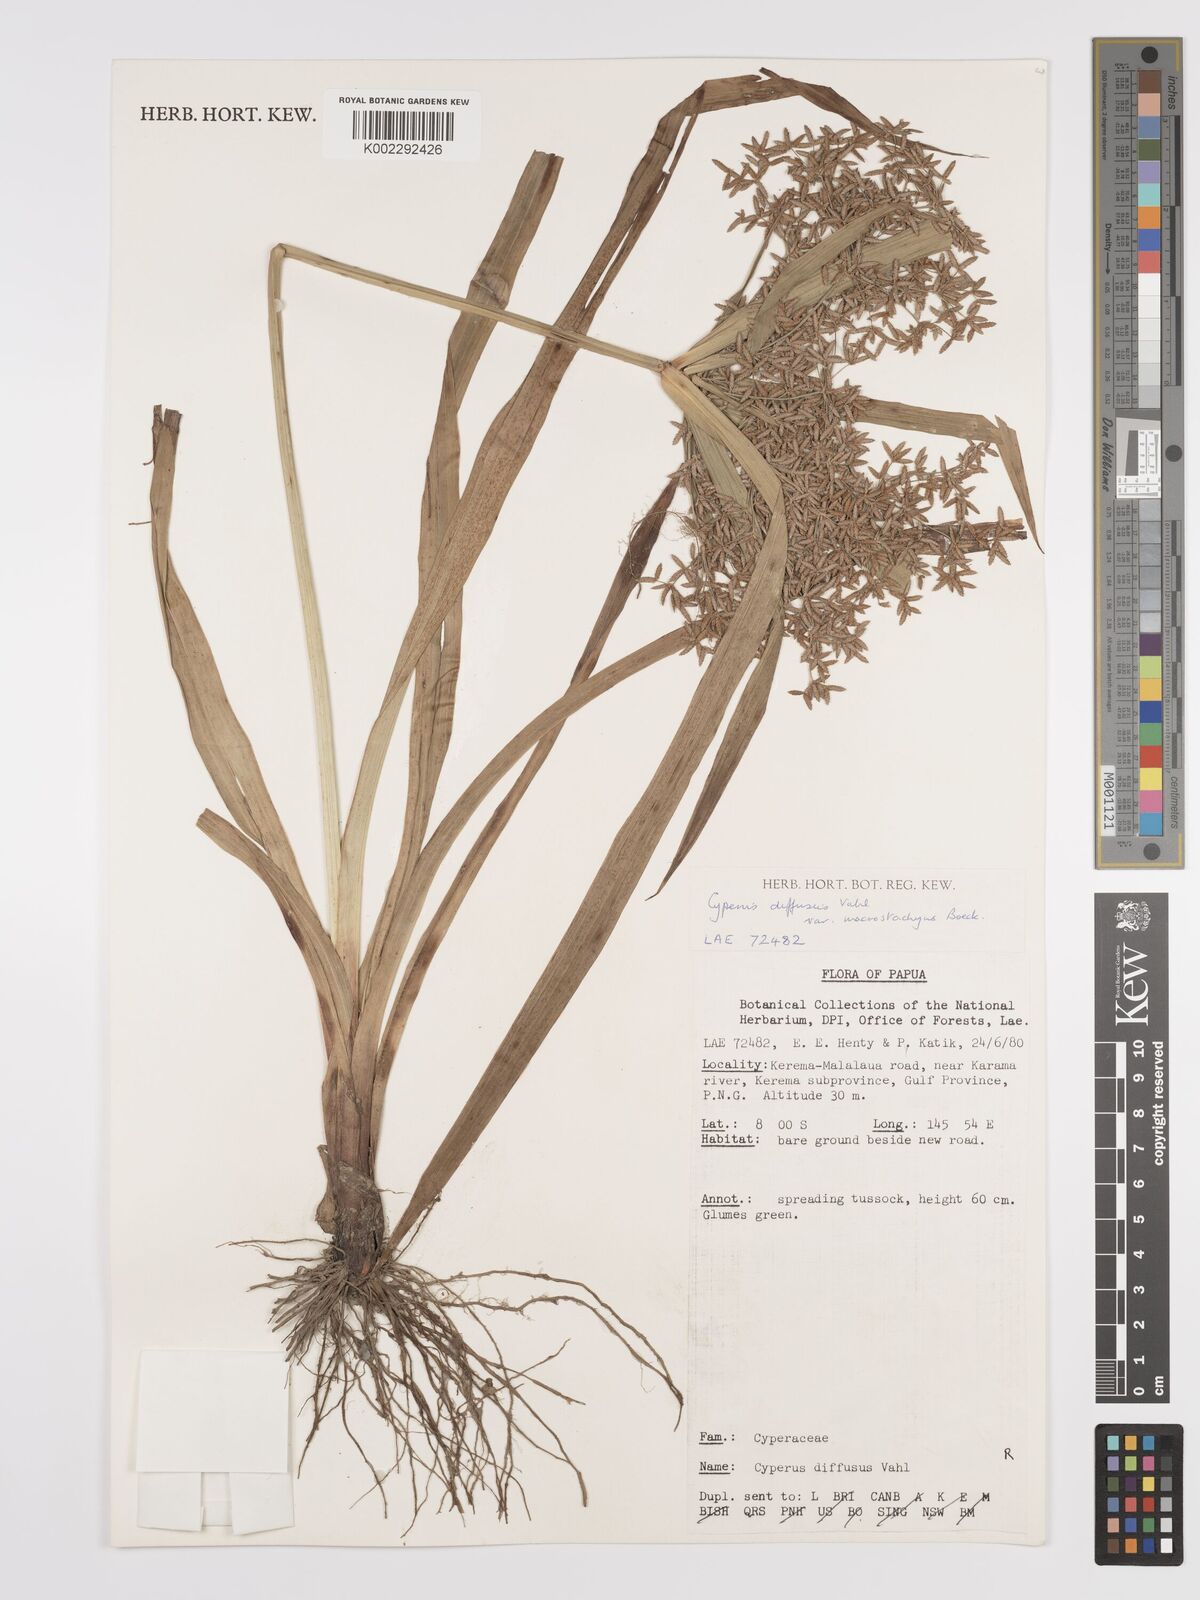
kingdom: Plantae
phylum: Tracheophyta
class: Liliopsida
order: Poales
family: Cyperaceae
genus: Cyperus
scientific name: Cyperus diffusus
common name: Dwarf umbrella grass
